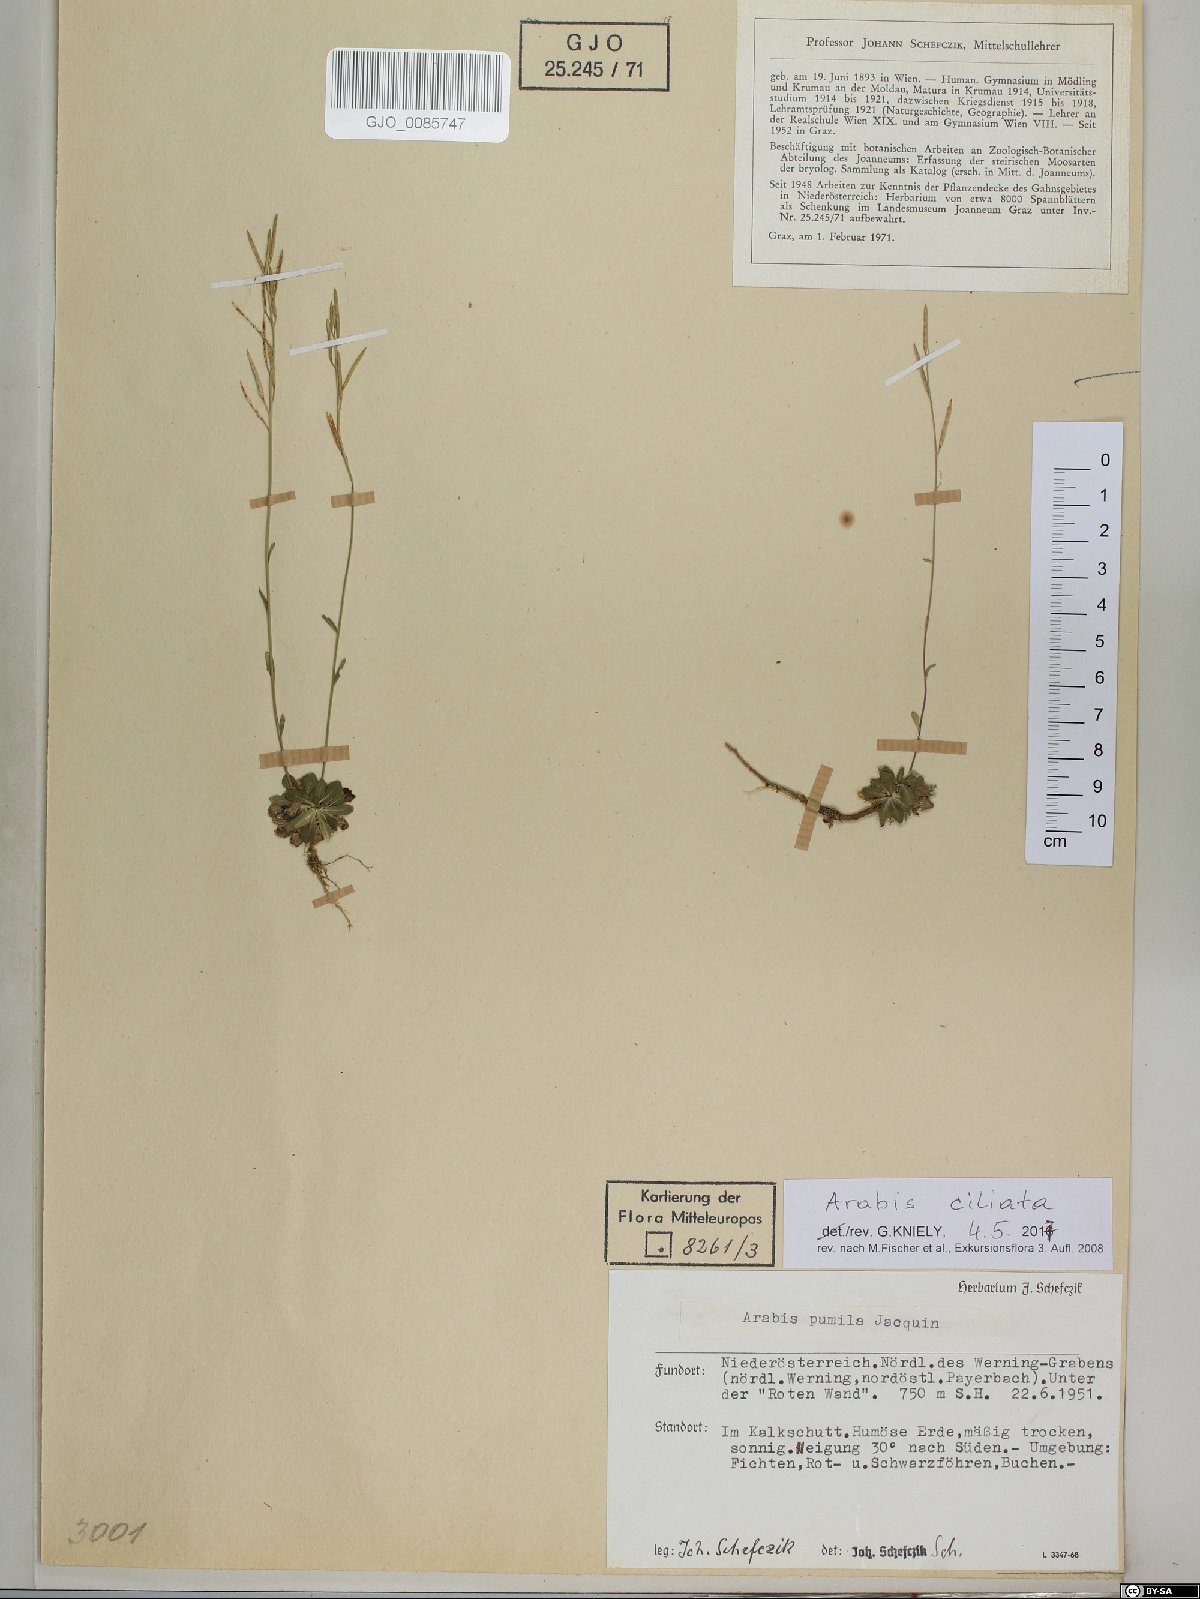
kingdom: Plantae
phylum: Tracheophyta
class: Magnoliopsida
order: Brassicales
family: Brassicaceae
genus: Arabis
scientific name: Arabis ciliata
